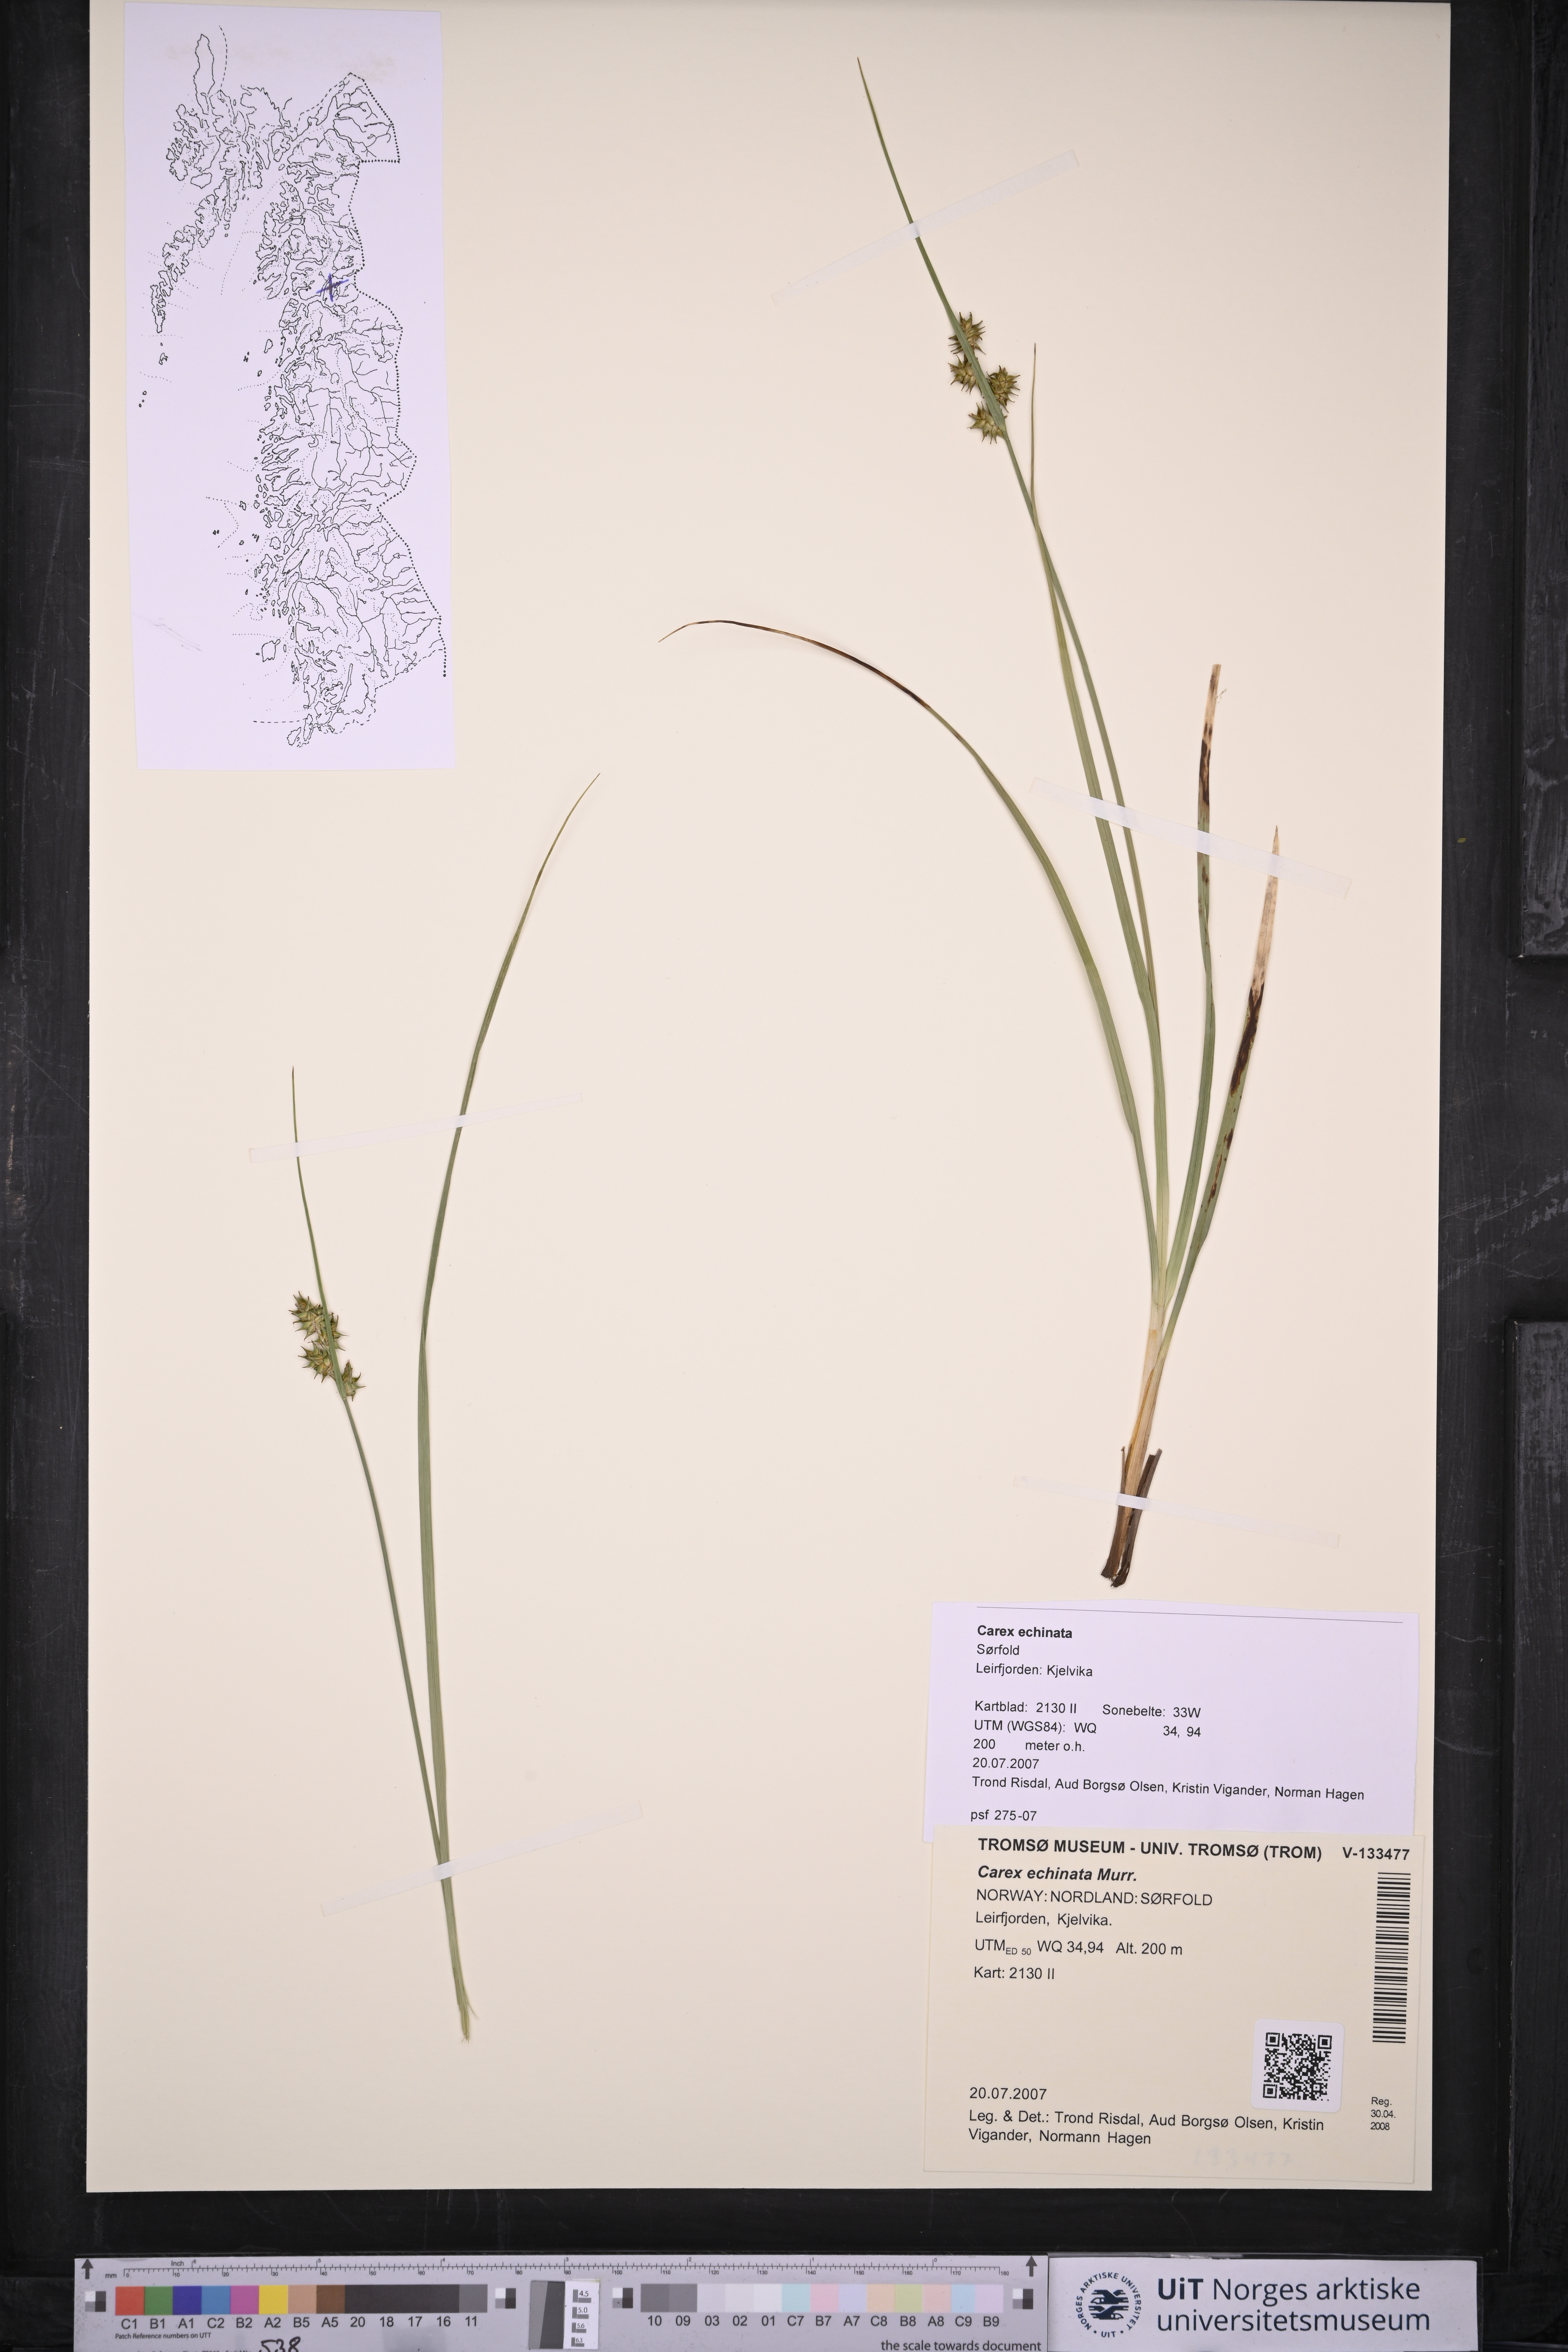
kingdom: Plantae
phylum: Tracheophyta
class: Liliopsida
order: Poales
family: Cyperaceae
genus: Carex
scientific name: Carex echinata
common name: Star sedge
